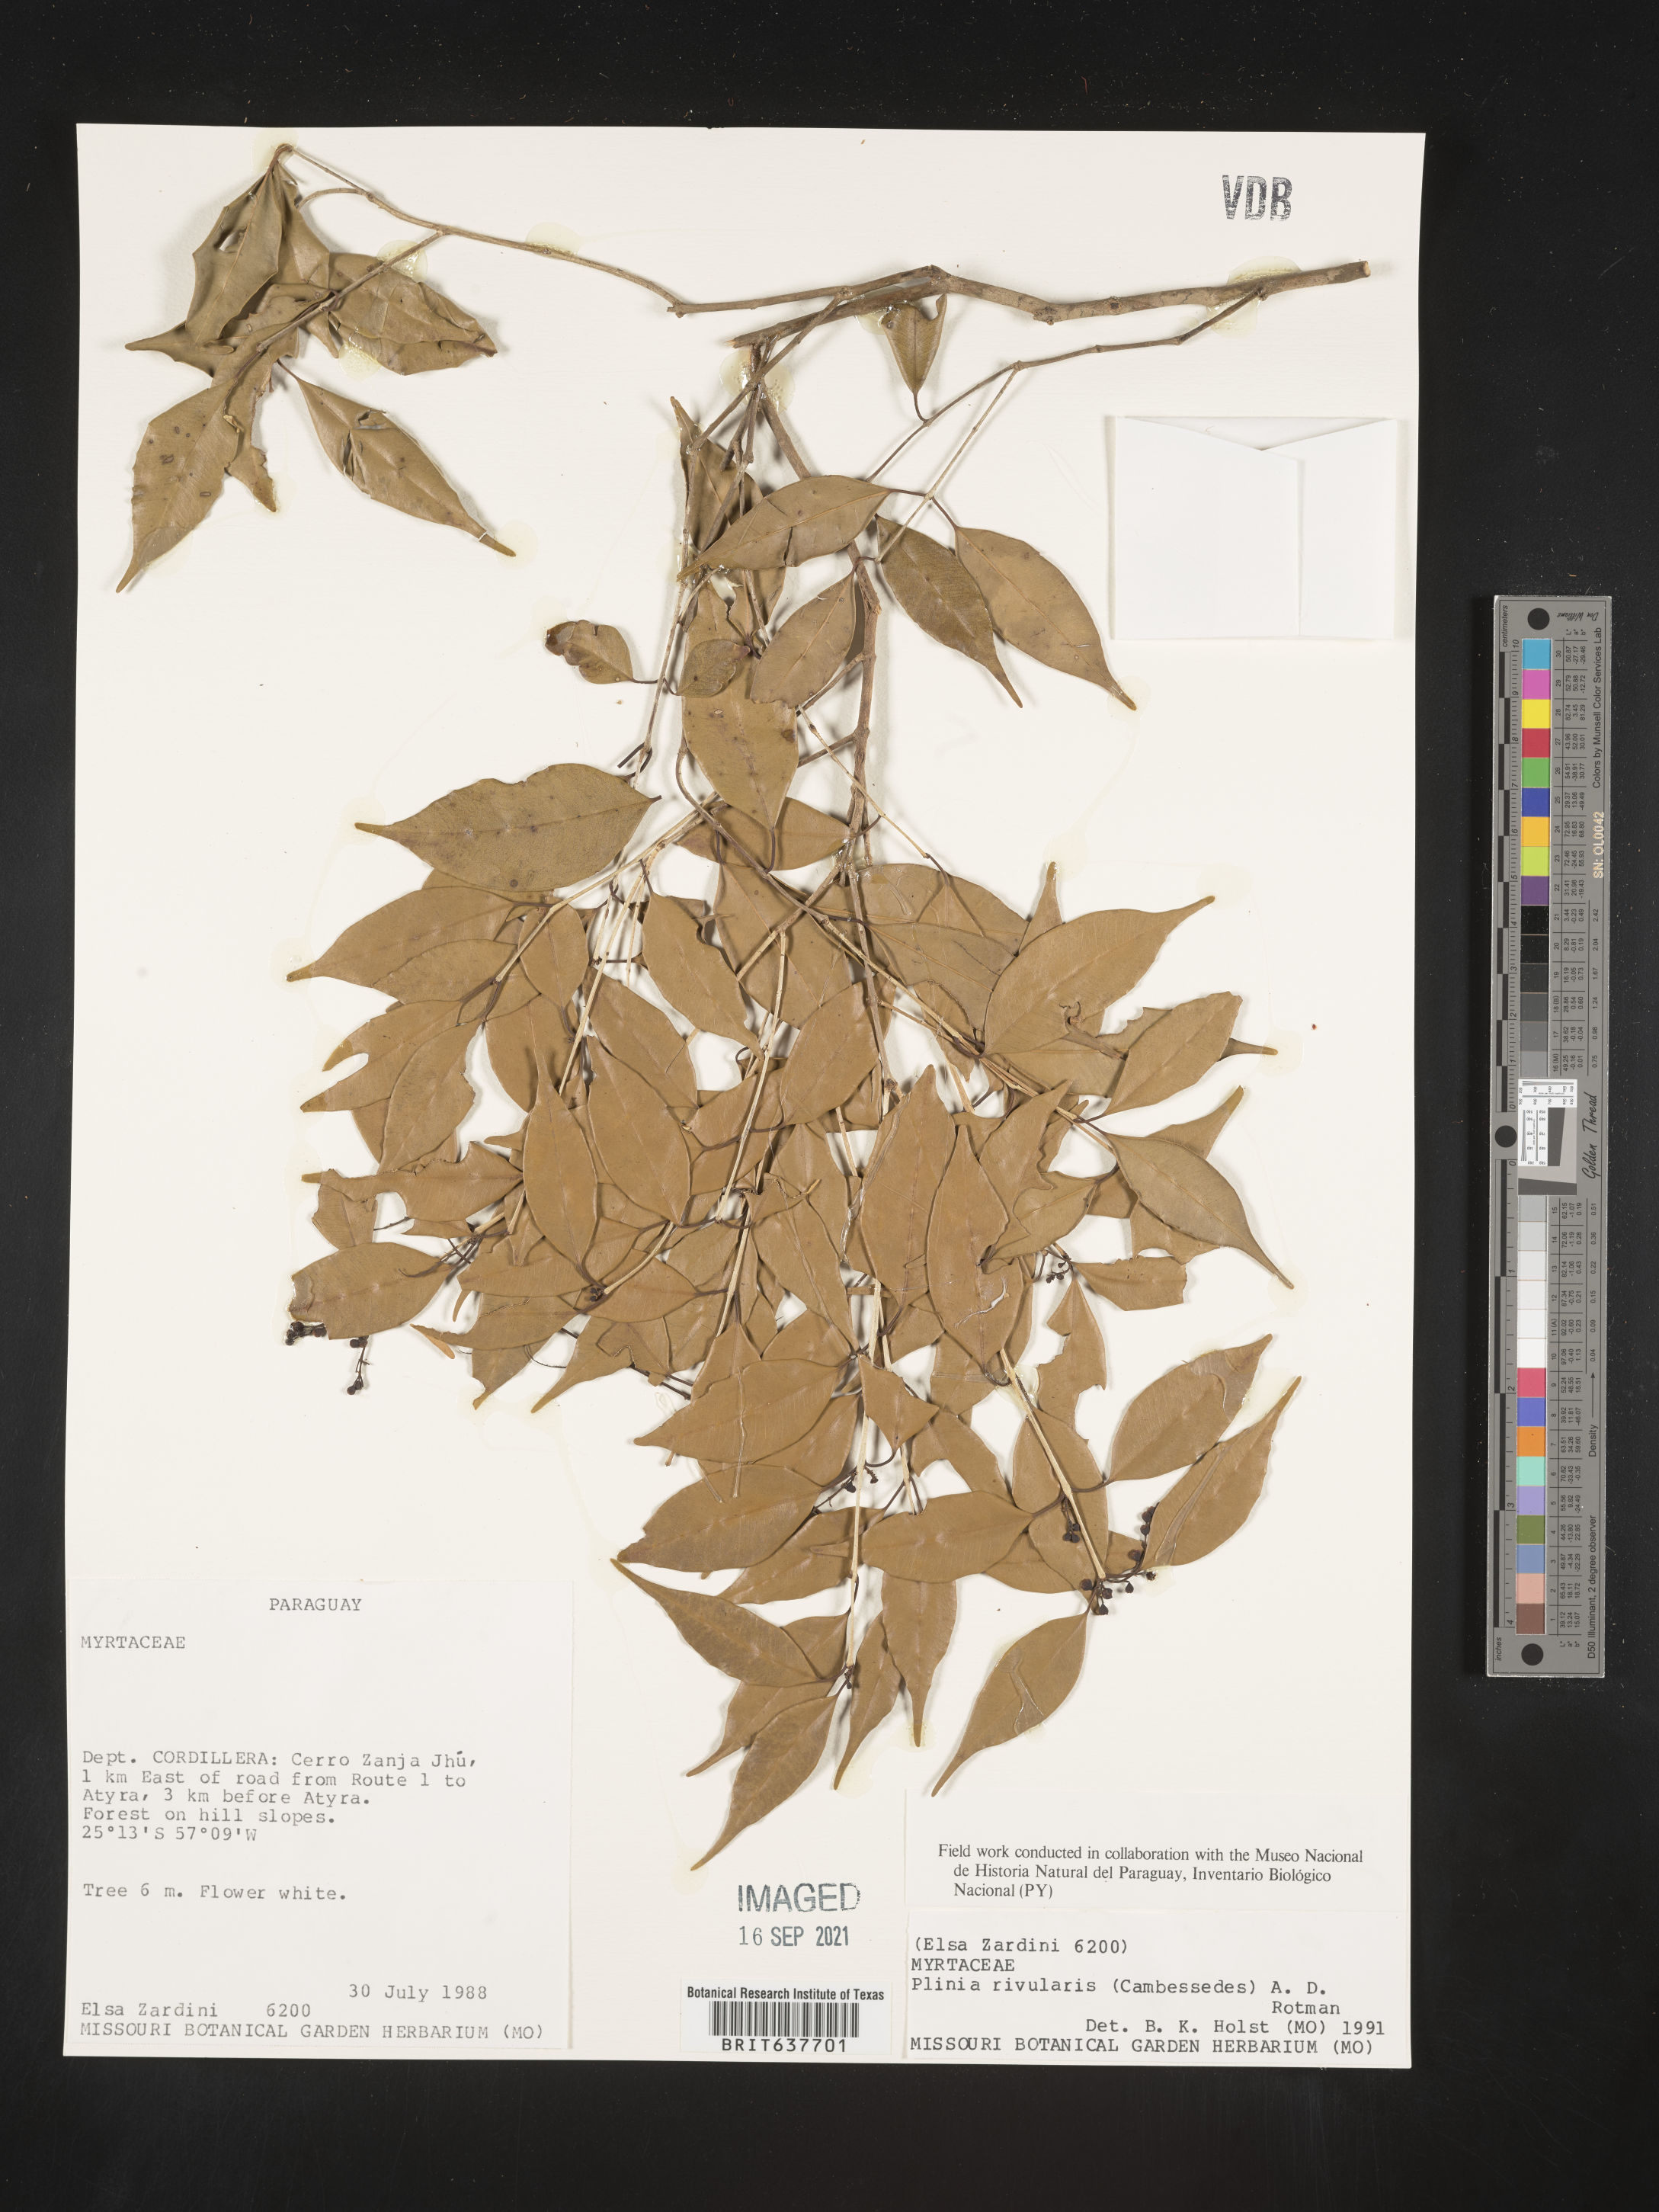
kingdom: Plantae
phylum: Tracheophyta
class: Magnoliopsida
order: Myrtales
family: Myrtaceae
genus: Plinia
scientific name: Plinia
